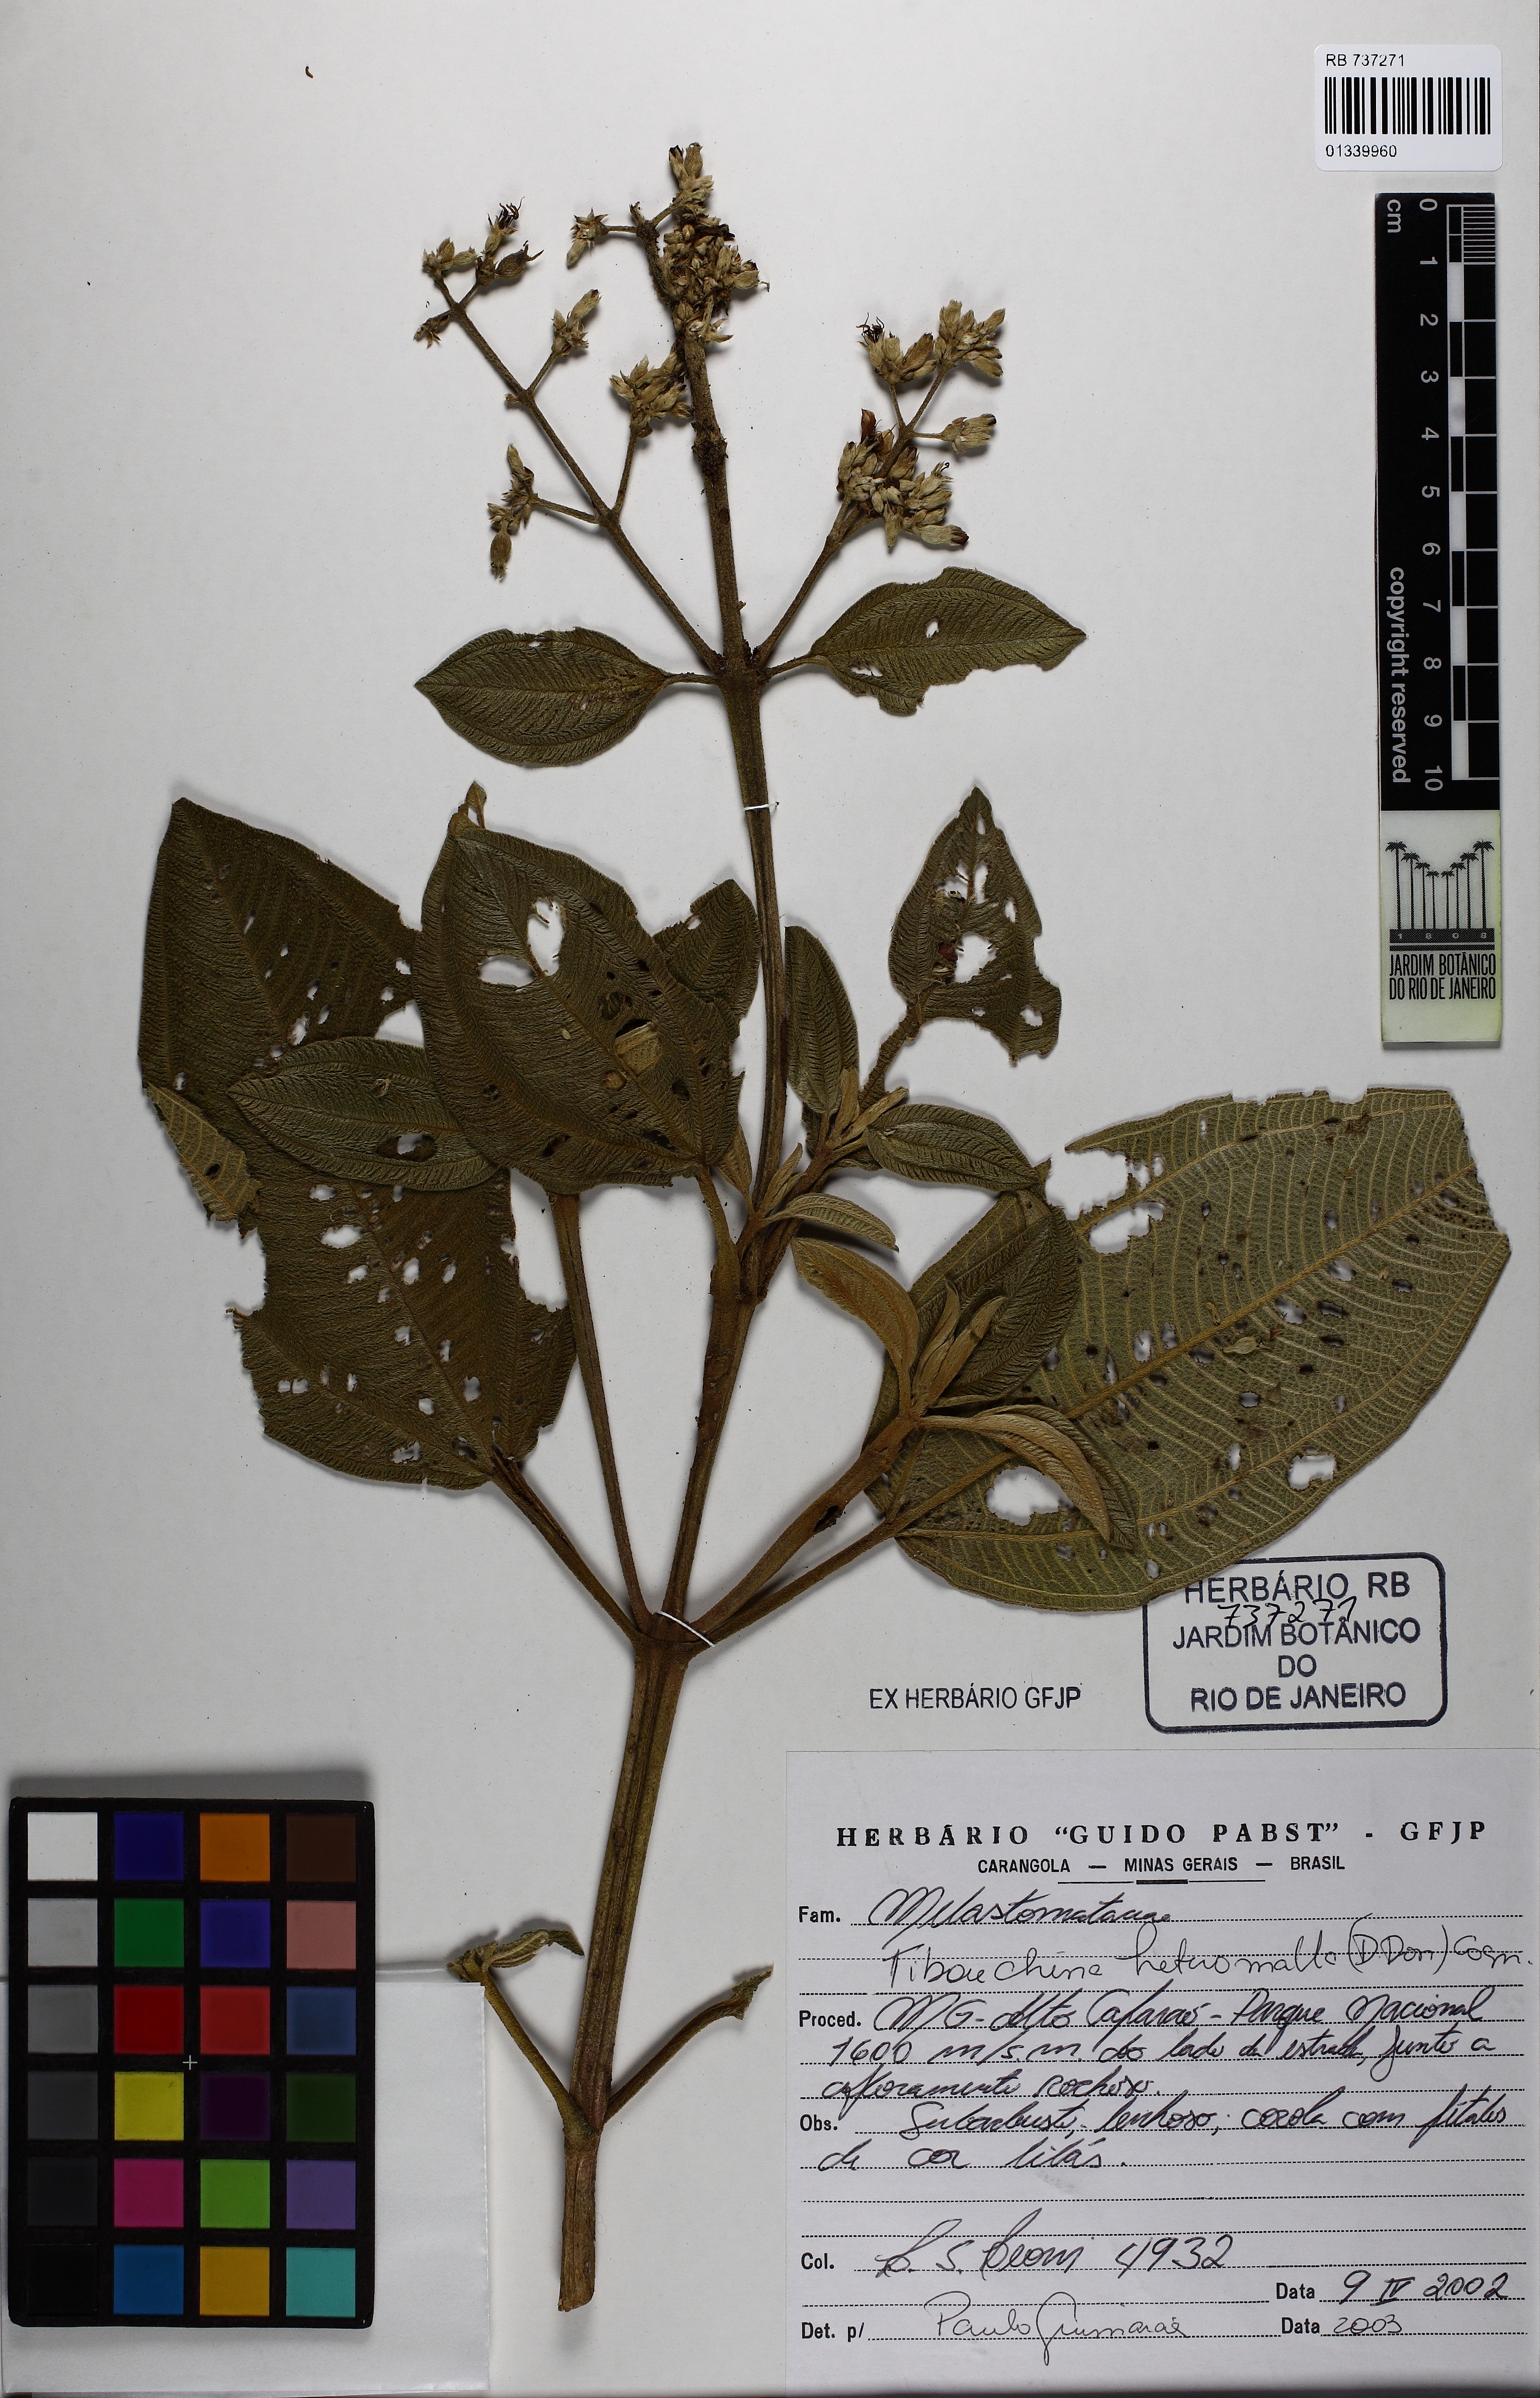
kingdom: Plantae
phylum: Tracheophyta
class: Magnoliopsida
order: Myrtales
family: Melastomataceae
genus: Pleroma
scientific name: Pleroma heteromallum
